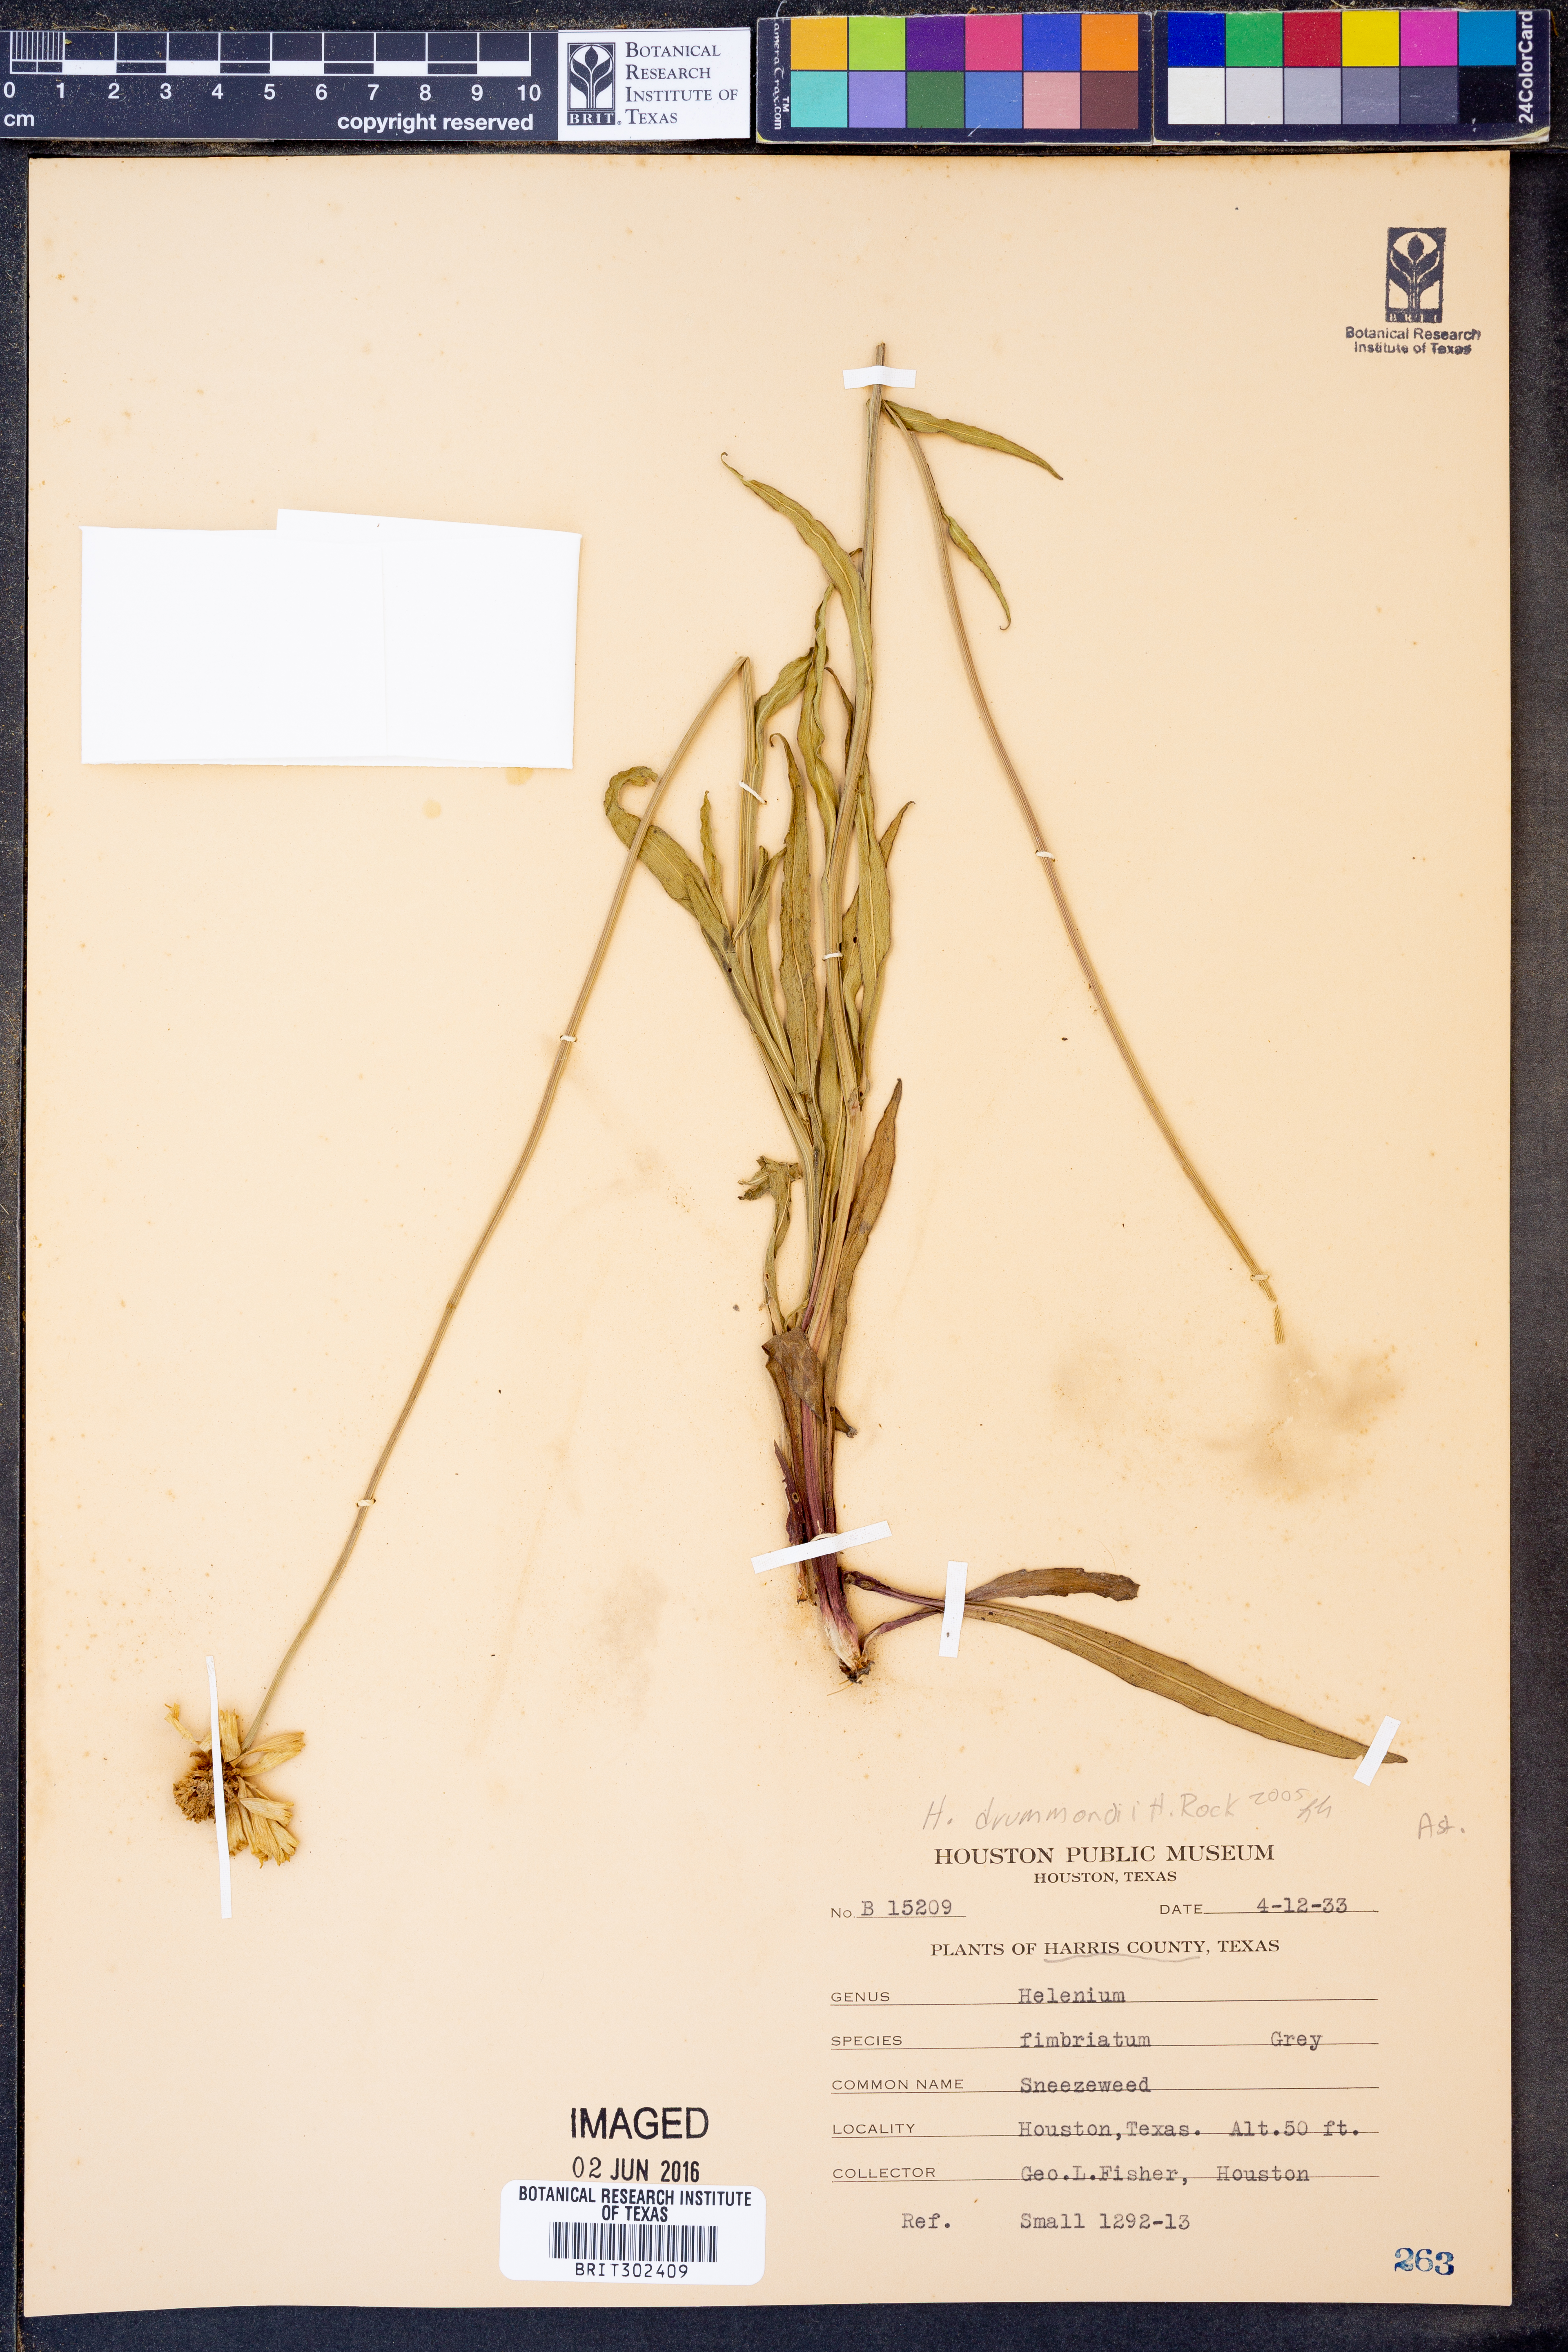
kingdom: Plantae
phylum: Tracheophyta
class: Magnoliopsida
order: Asterales
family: Asteraceae
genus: Helenium
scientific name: Helenium drummondii
